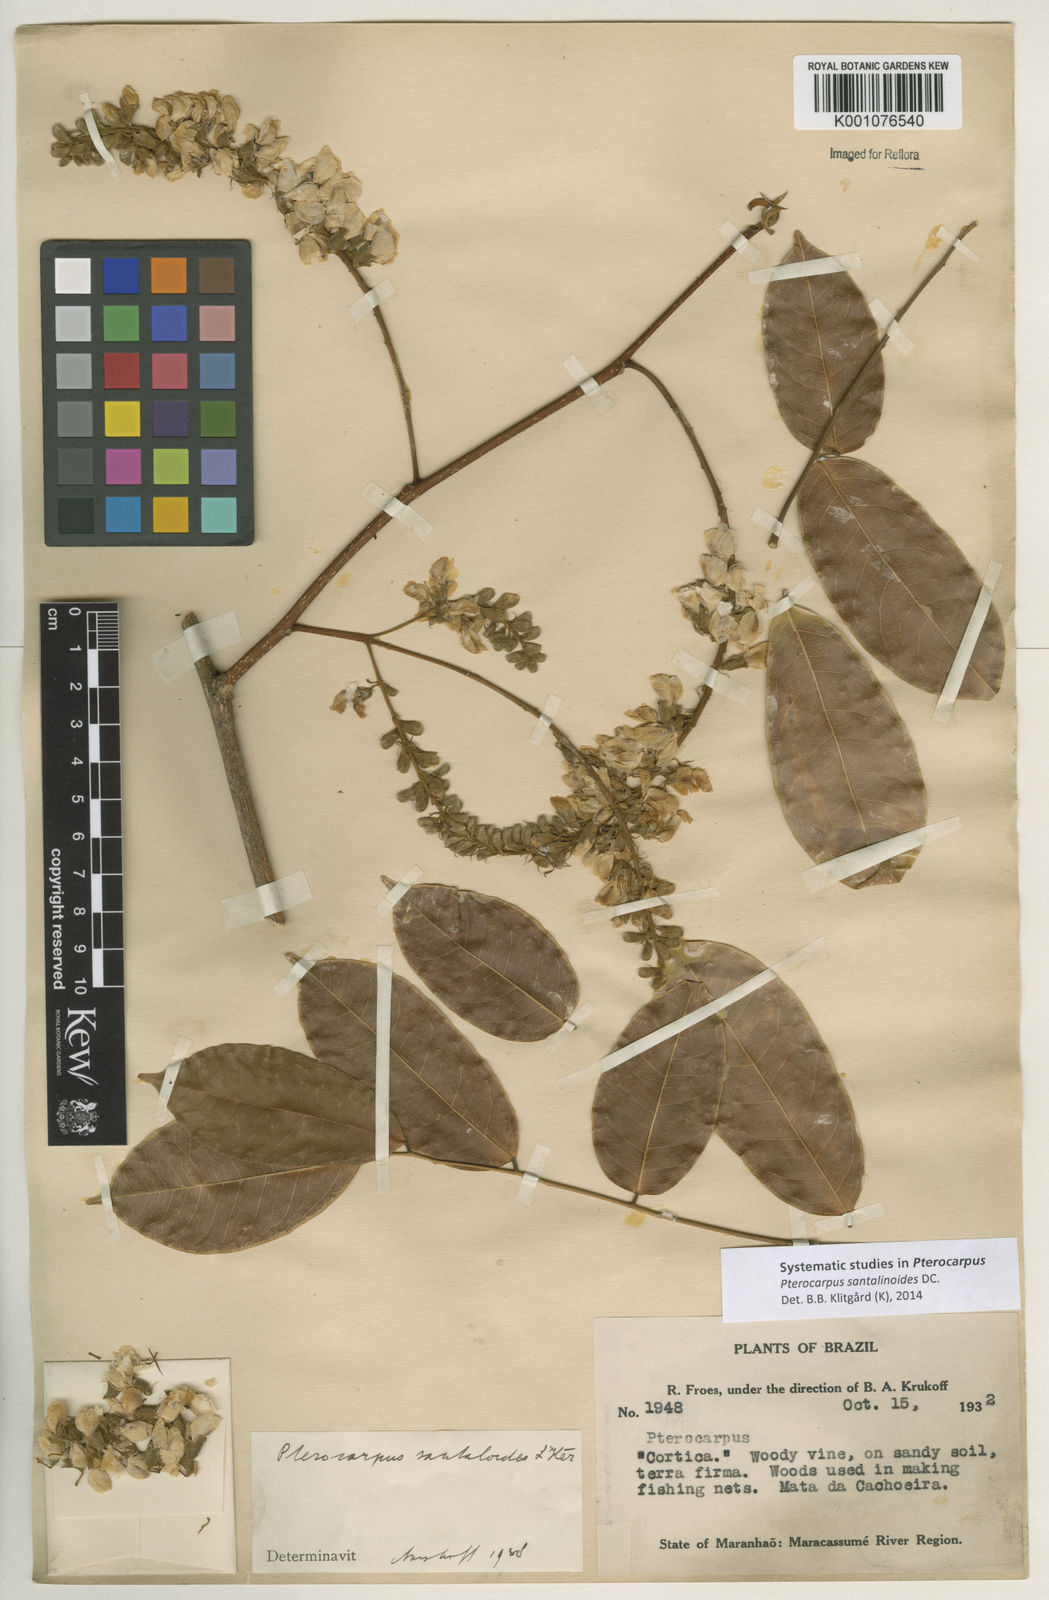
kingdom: Plantae
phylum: Tracheophyta
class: Magnoliopsida
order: Fabales
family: Fabaceae
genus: Pterocarpus
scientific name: Pterocarpus santalinoides
